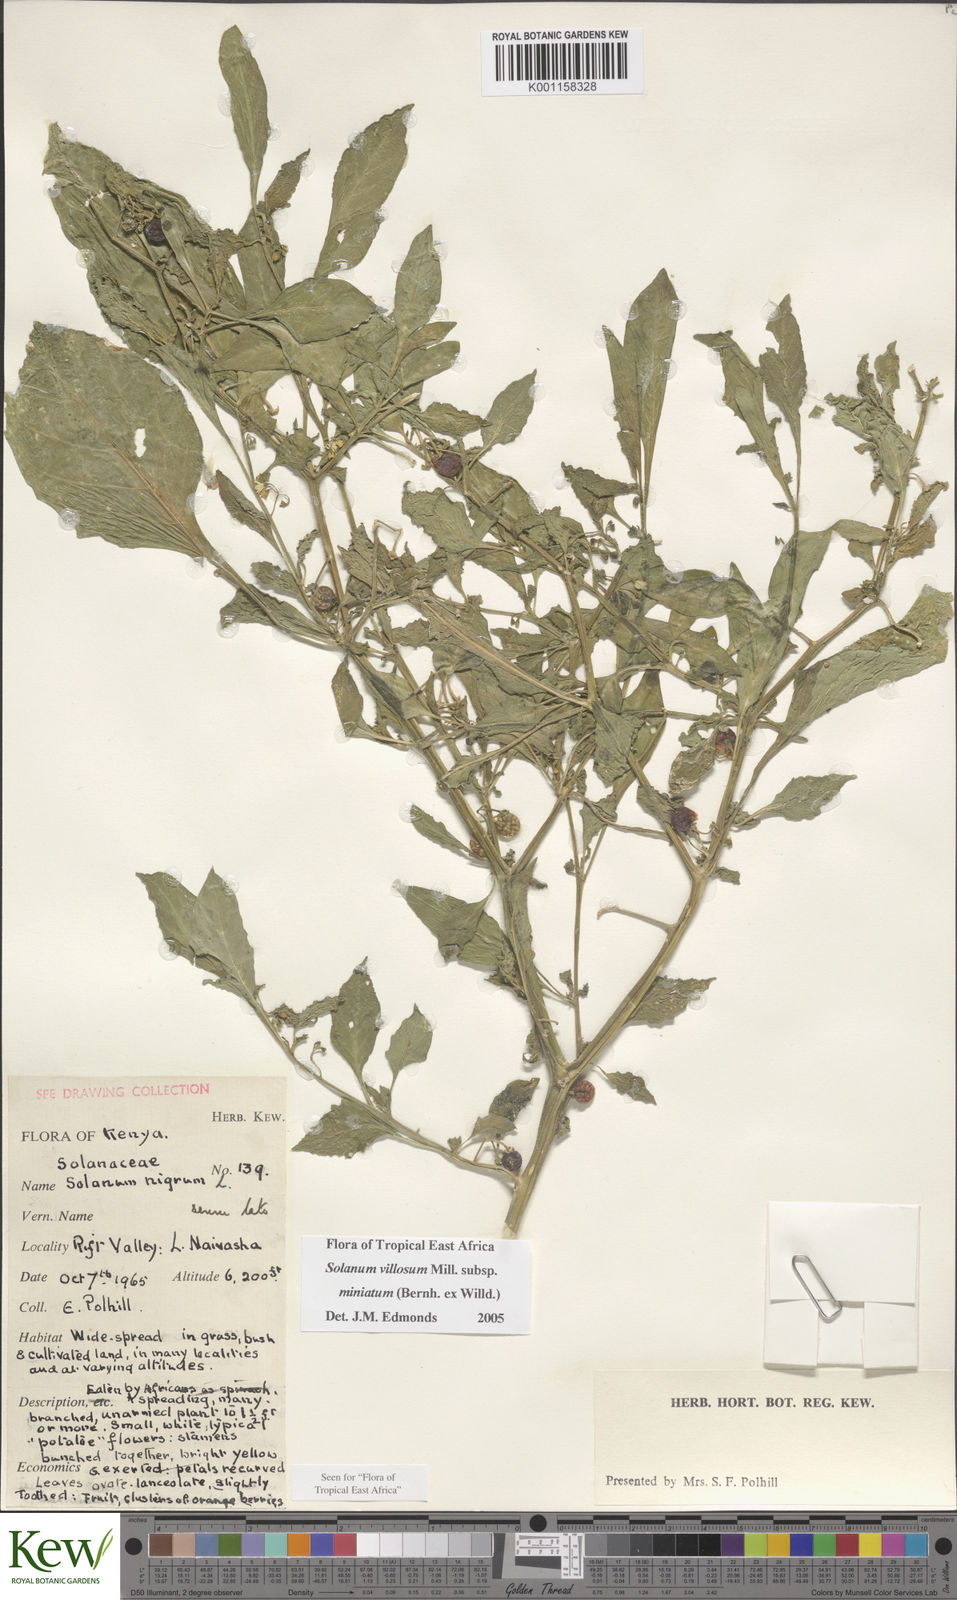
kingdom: Plantae
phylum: Tracheophyta
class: Magnoliopsida
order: Solanales
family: Solanaceae
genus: Solanum
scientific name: Solanum villosum
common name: Red nightshade
